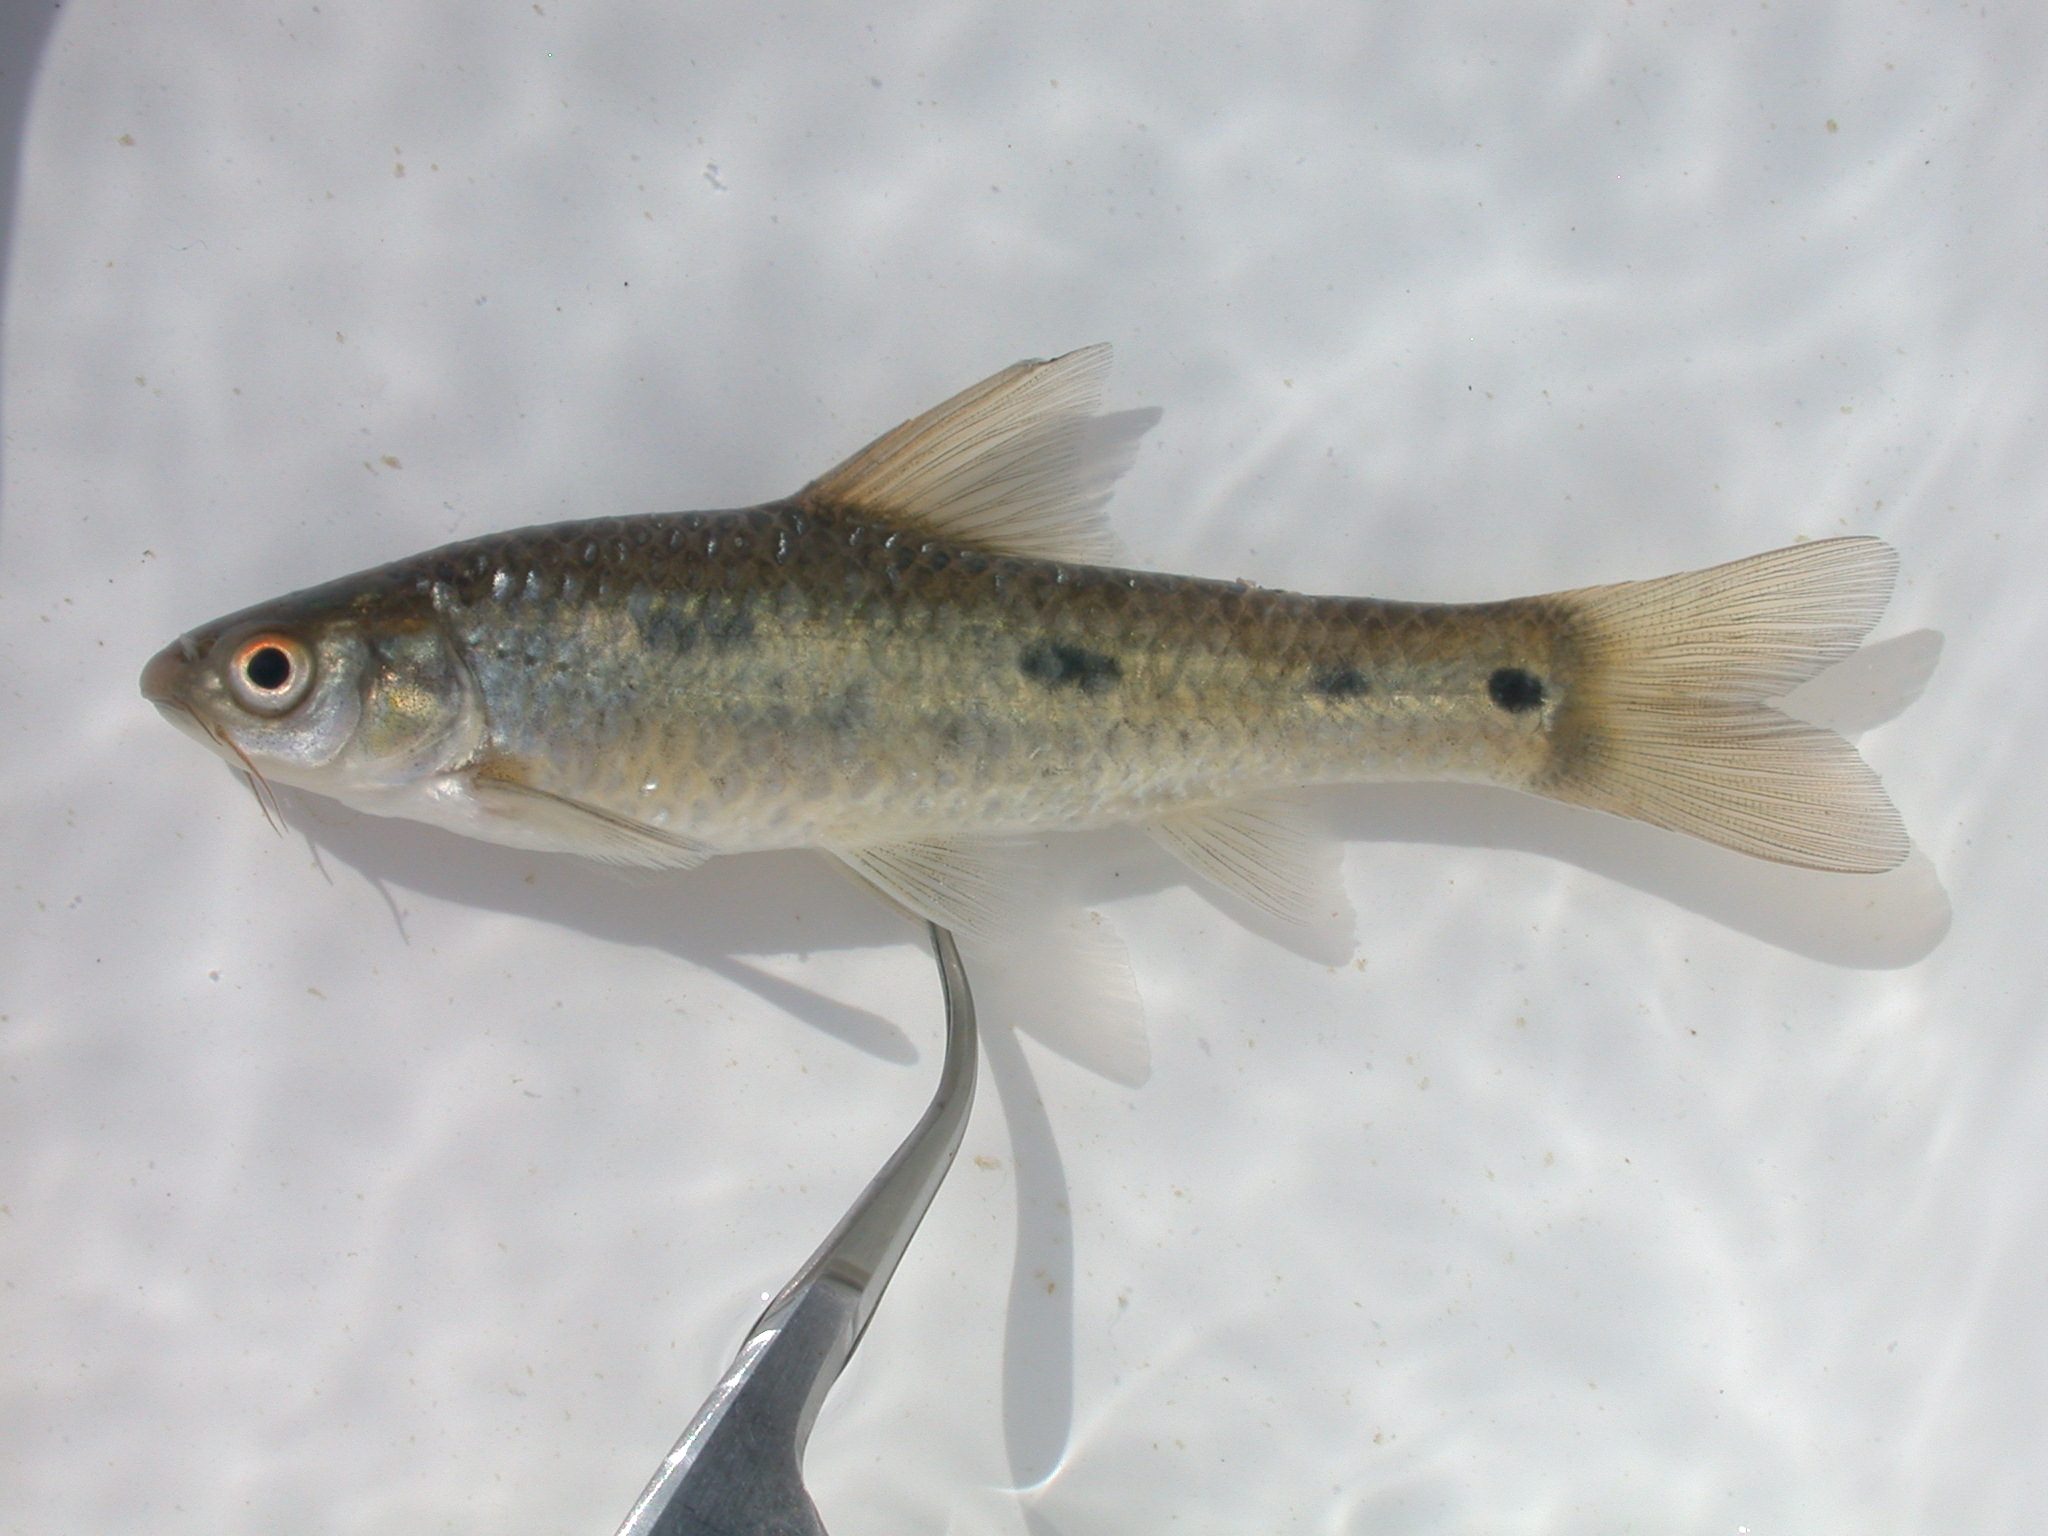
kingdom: Animalia
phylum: Chordata
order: Cypriniformes
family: Cyprinidae
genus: Enteromius
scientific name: Enteromius trimaculatus
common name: Threespot barb
